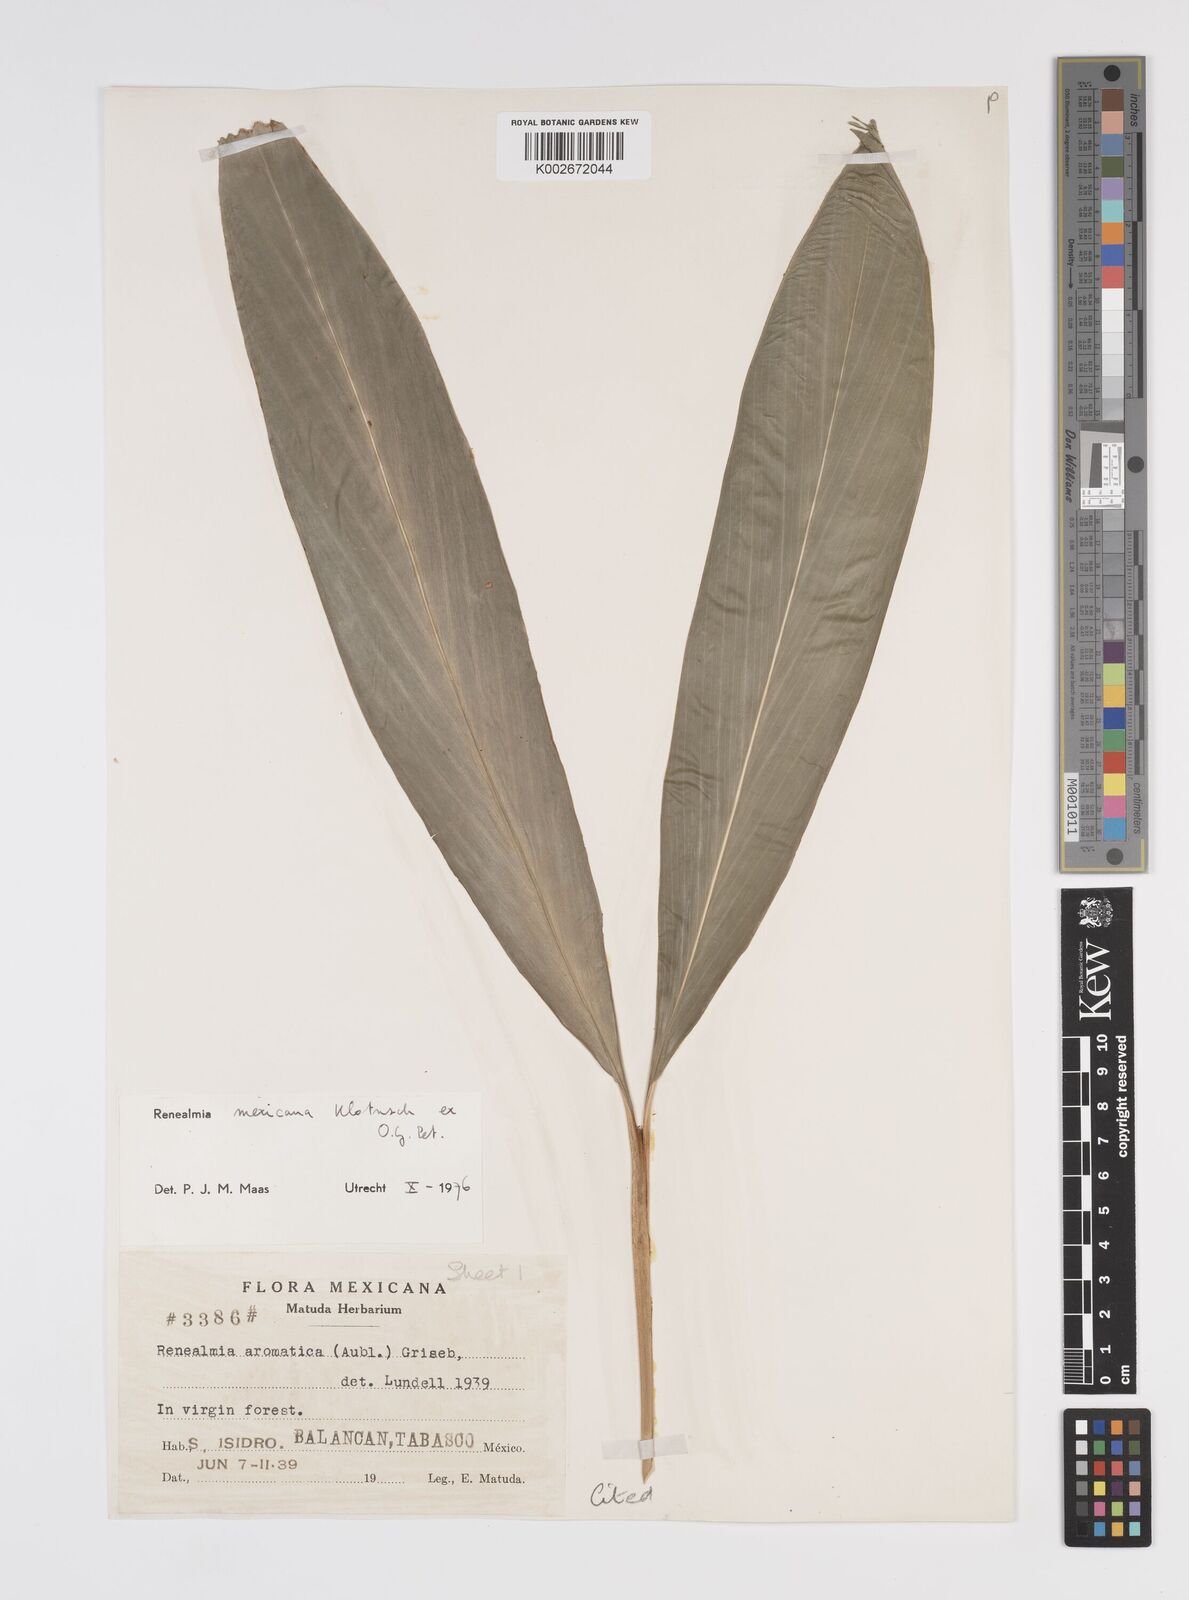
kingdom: Plantae
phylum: Tracheophyta
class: Liliopsida
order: Zingiberales
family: Zingiberaceae
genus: Renealmia
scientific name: Renealmia mexicana
